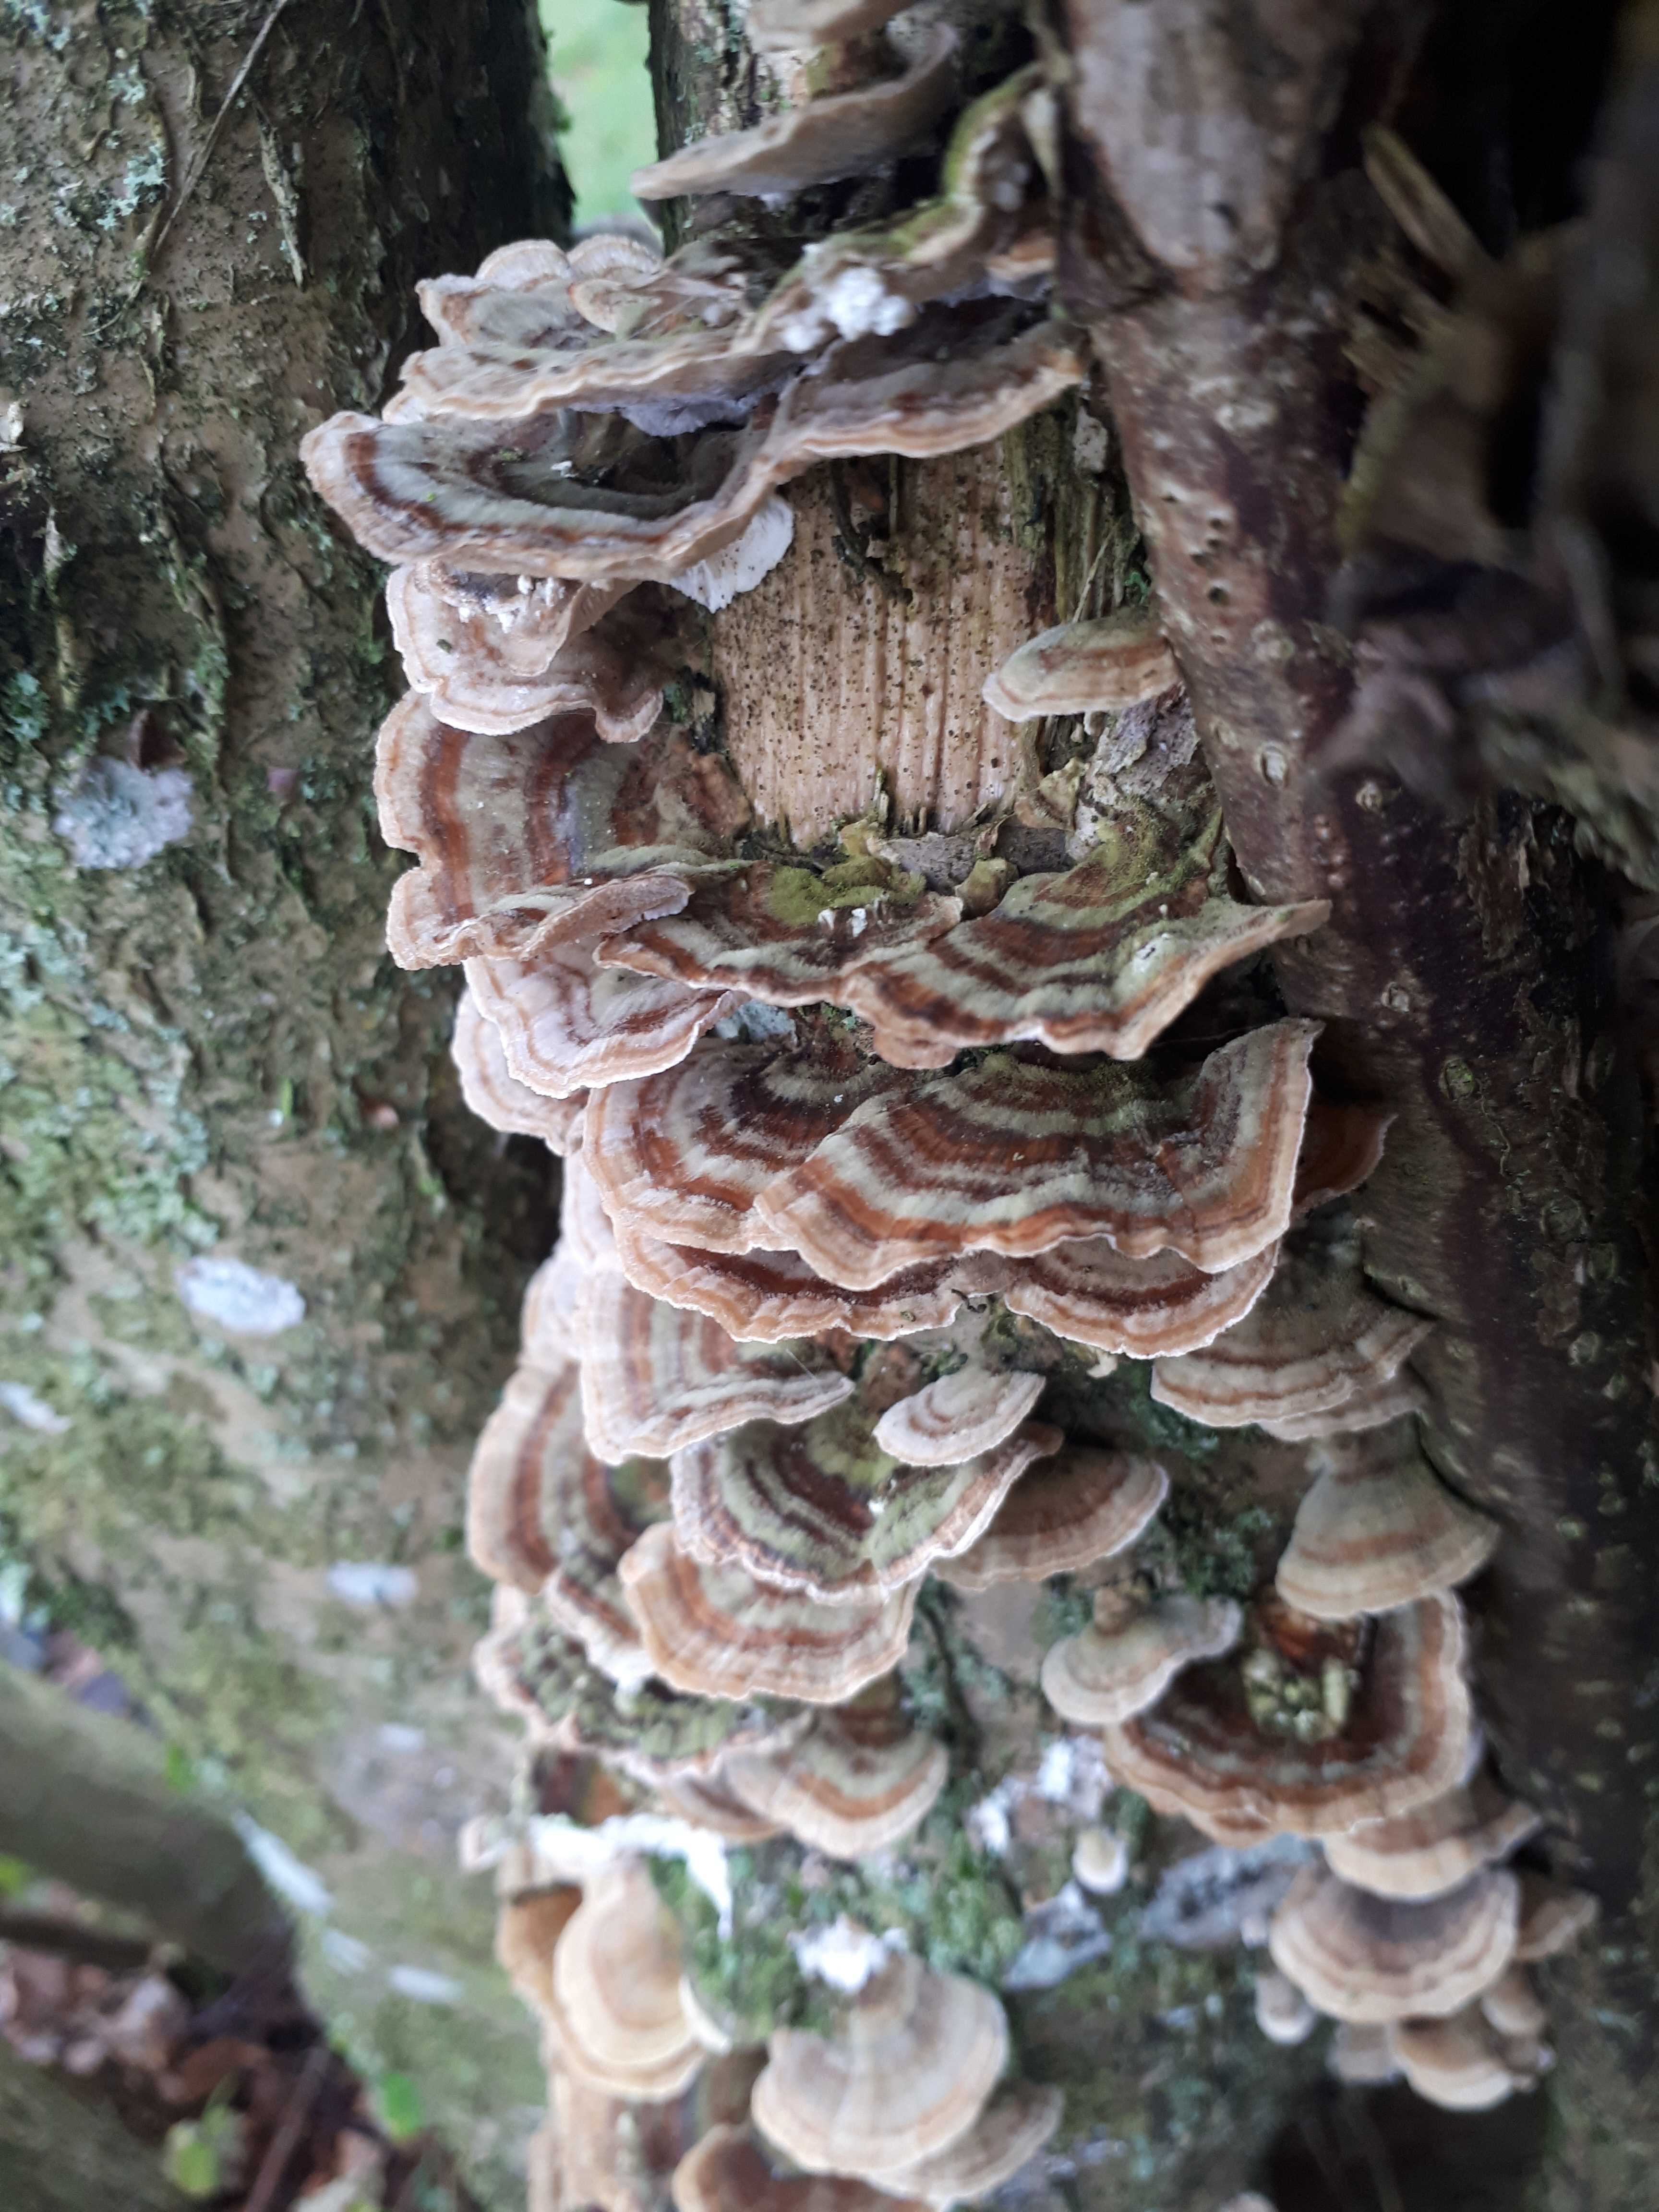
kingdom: Fungi
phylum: Basidiomycota
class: Agaricomycetes
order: Polyporales
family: Polyporaceae
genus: Trametes
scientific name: Trametes versicolor
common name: broget læderporesvamp
